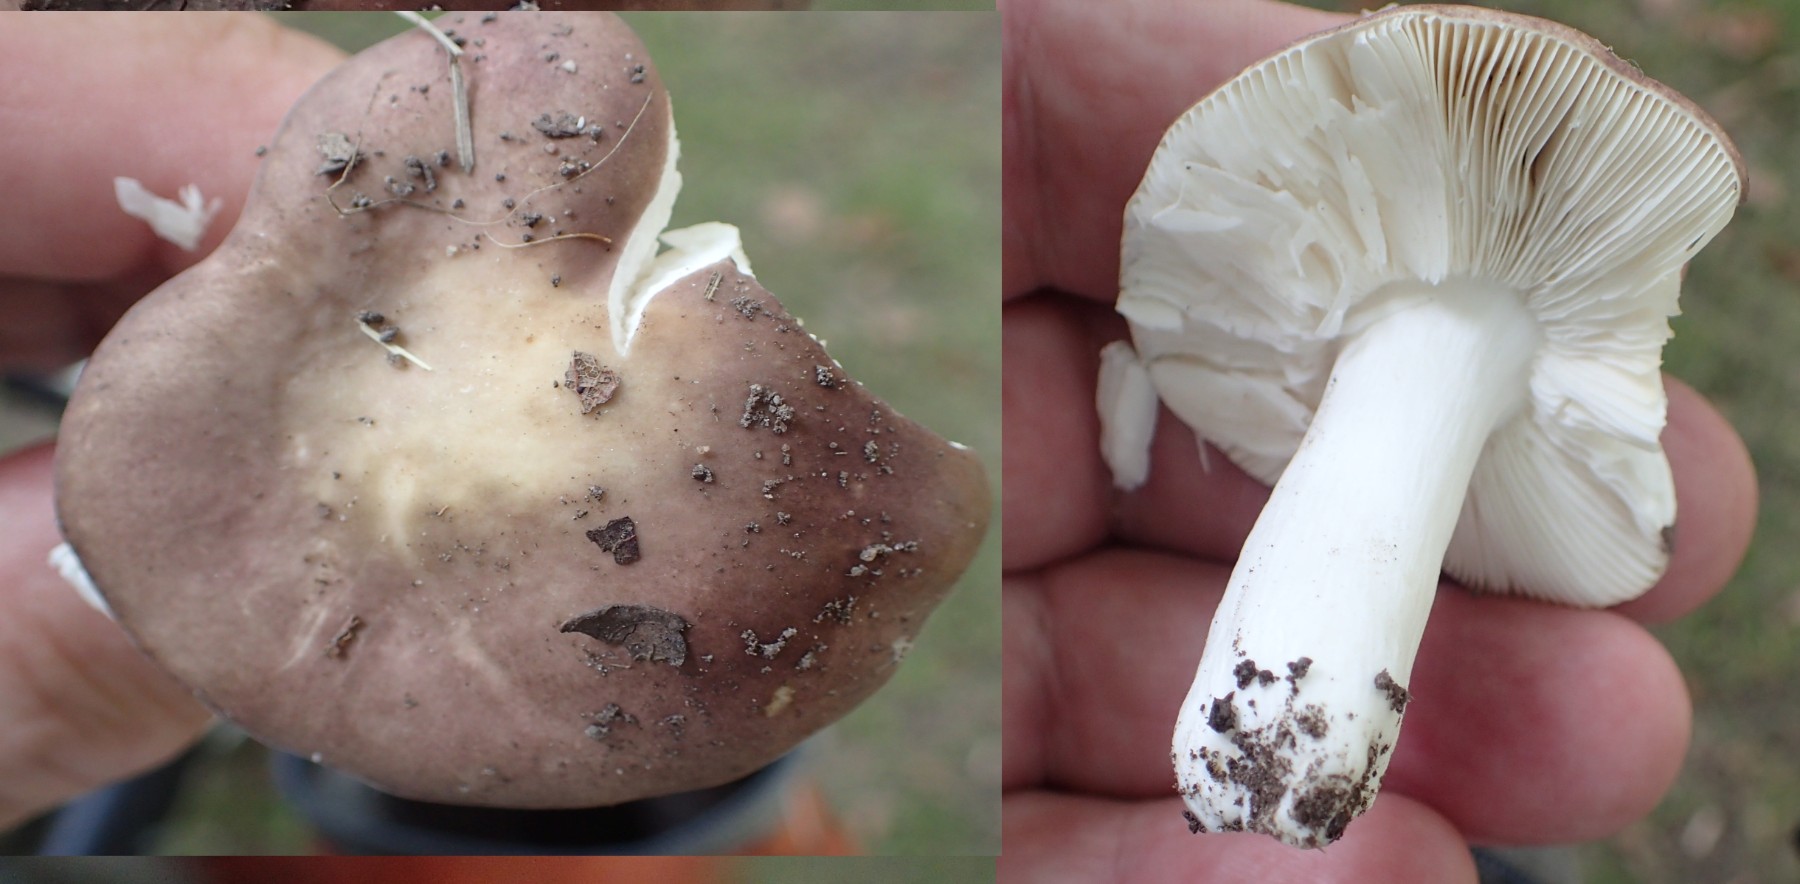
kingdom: Fungi
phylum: Basidiomycota
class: Agaricomycetes
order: Russulales
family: Russulaceae
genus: Russula
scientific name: Russula
